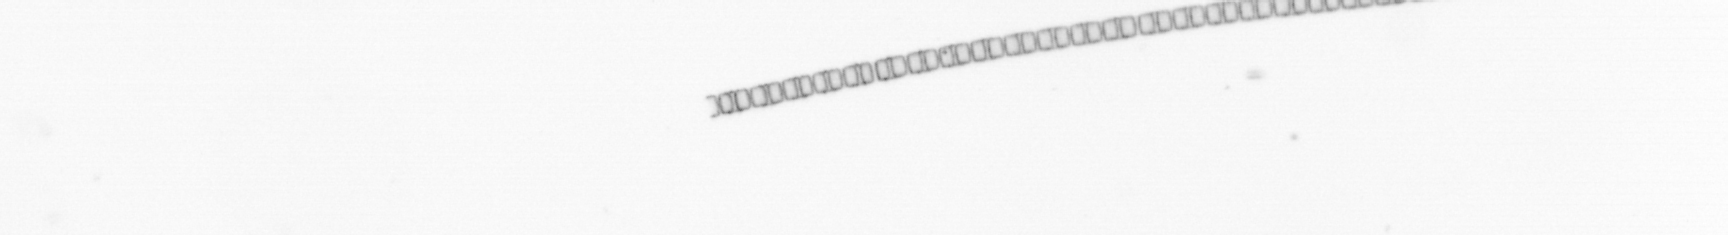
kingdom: Chromista
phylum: Ochrophyta
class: Bacillariophyceae
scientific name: Bacillariophyceae
